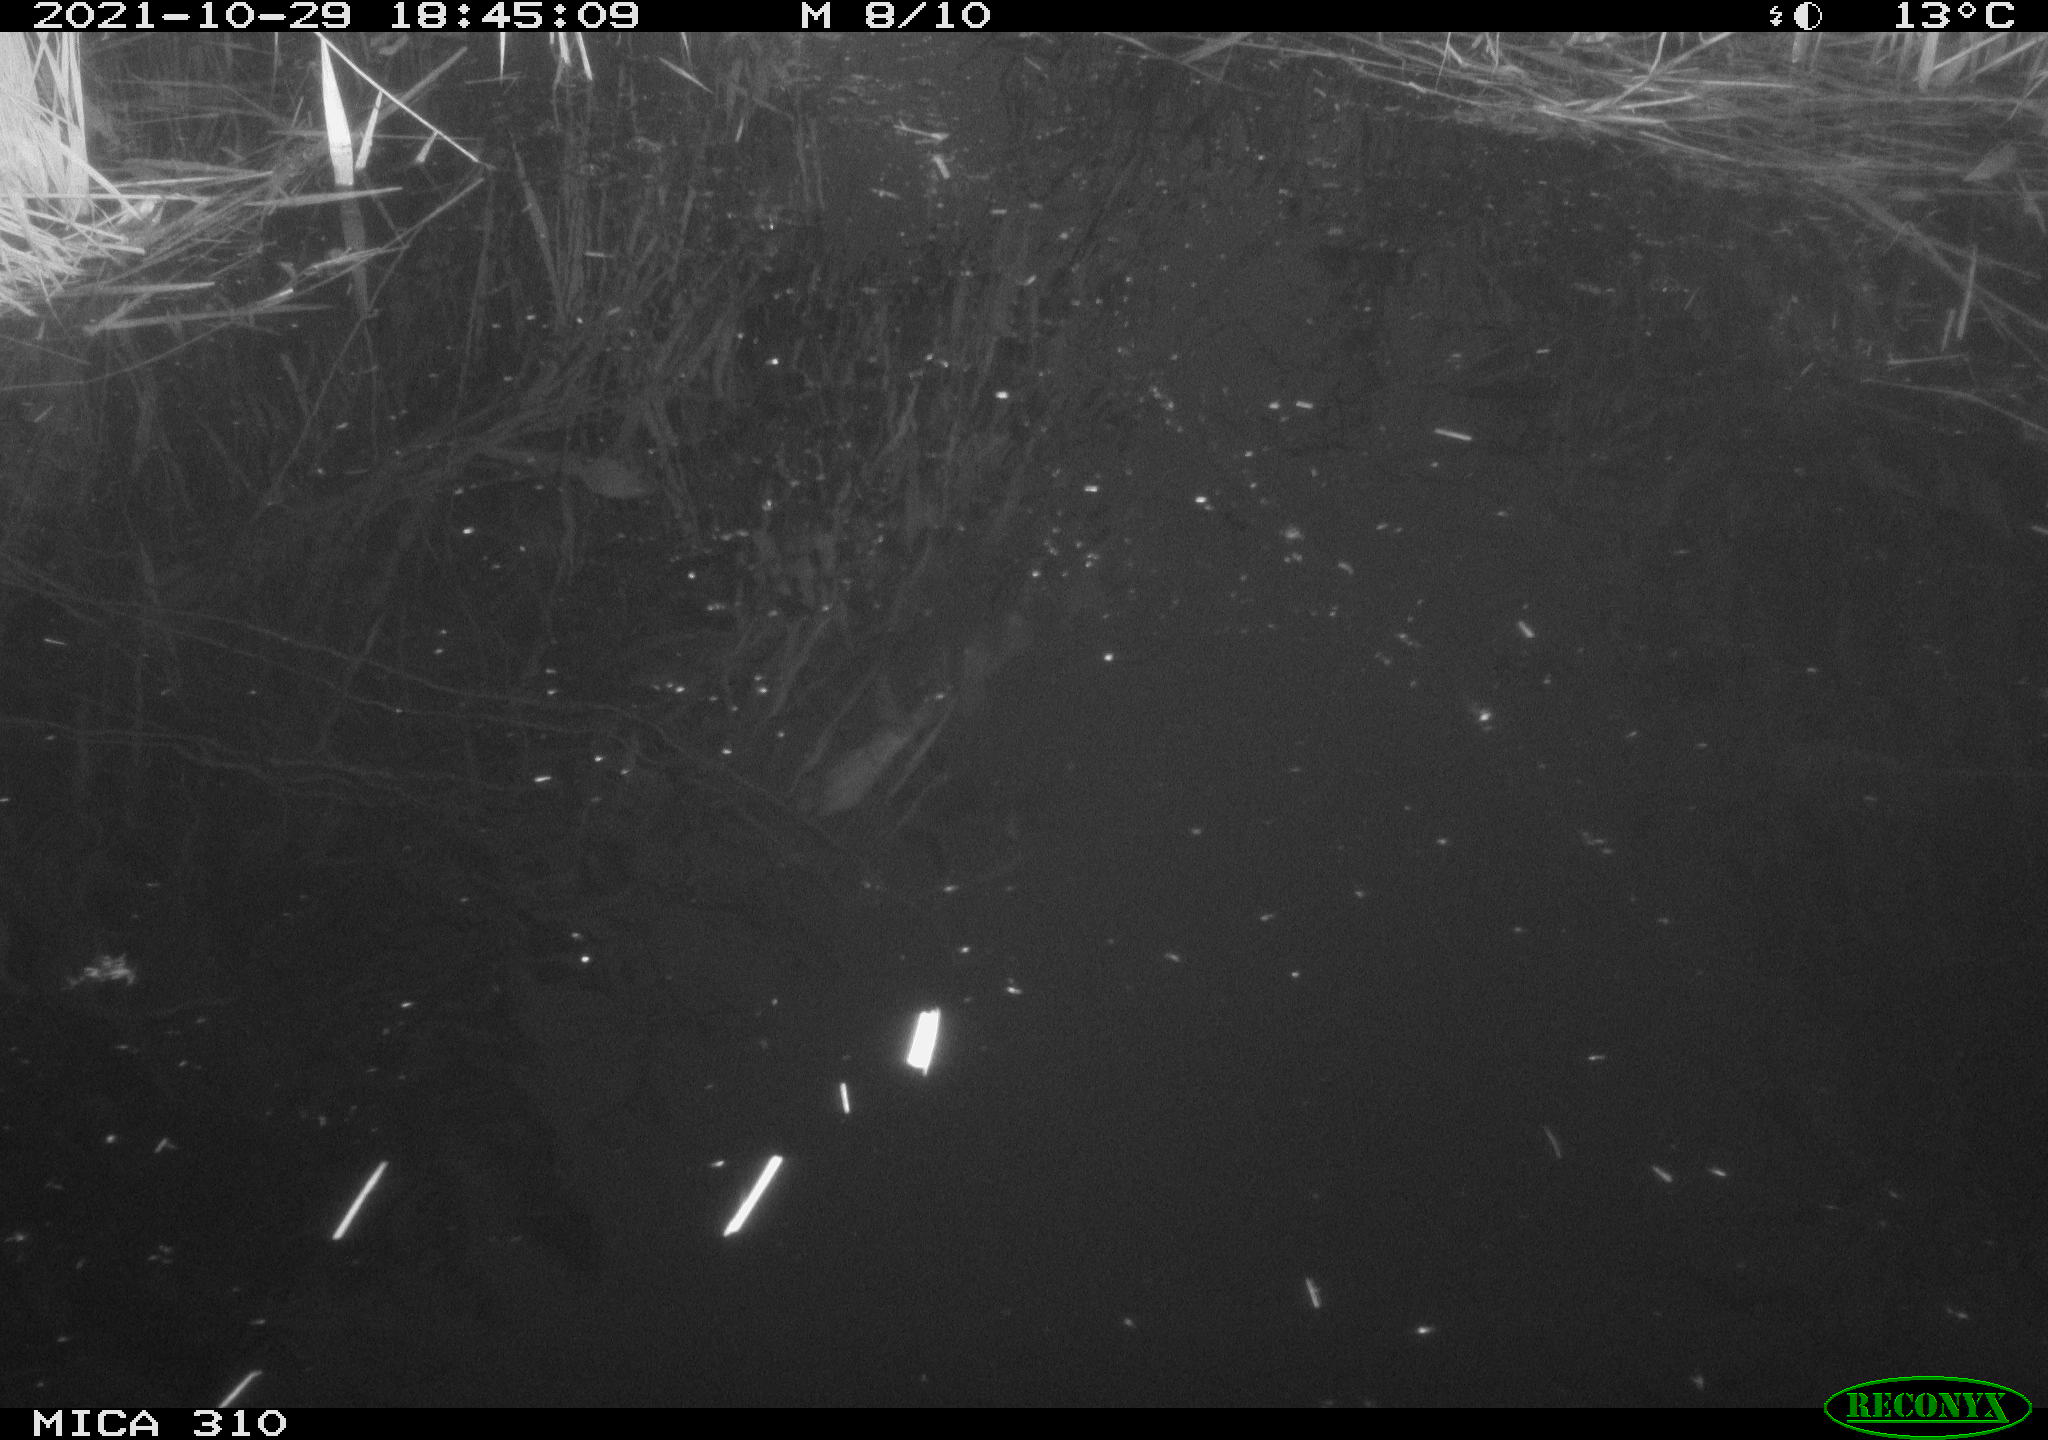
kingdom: Animalia
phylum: Chordata
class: Aves
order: Gruiformes
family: Rallidae
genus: Fulica
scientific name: Fulica atra
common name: Eurasian coot
